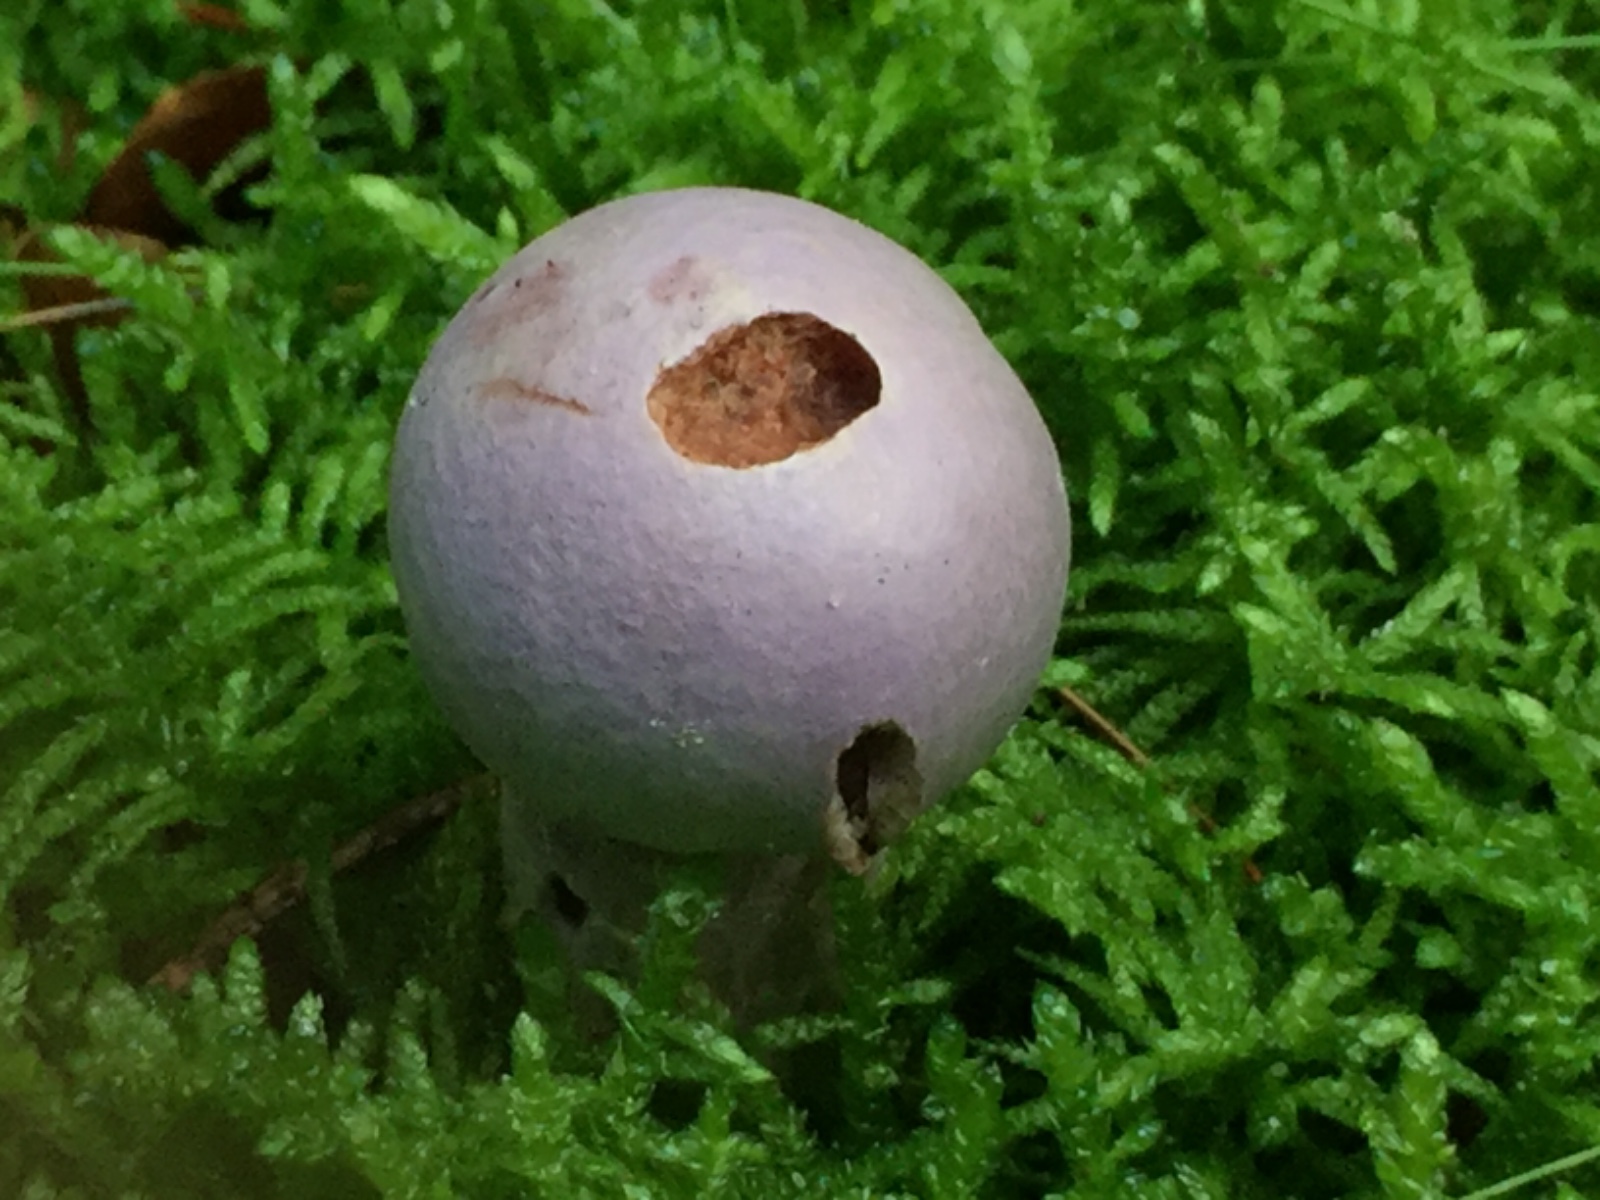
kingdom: Fungi
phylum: Basidiomycota
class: Agaricomycetes
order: Agaricales
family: Cortinariaceae
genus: Cortinarius
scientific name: Cortinarius traganus
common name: safrankødet slørhat
